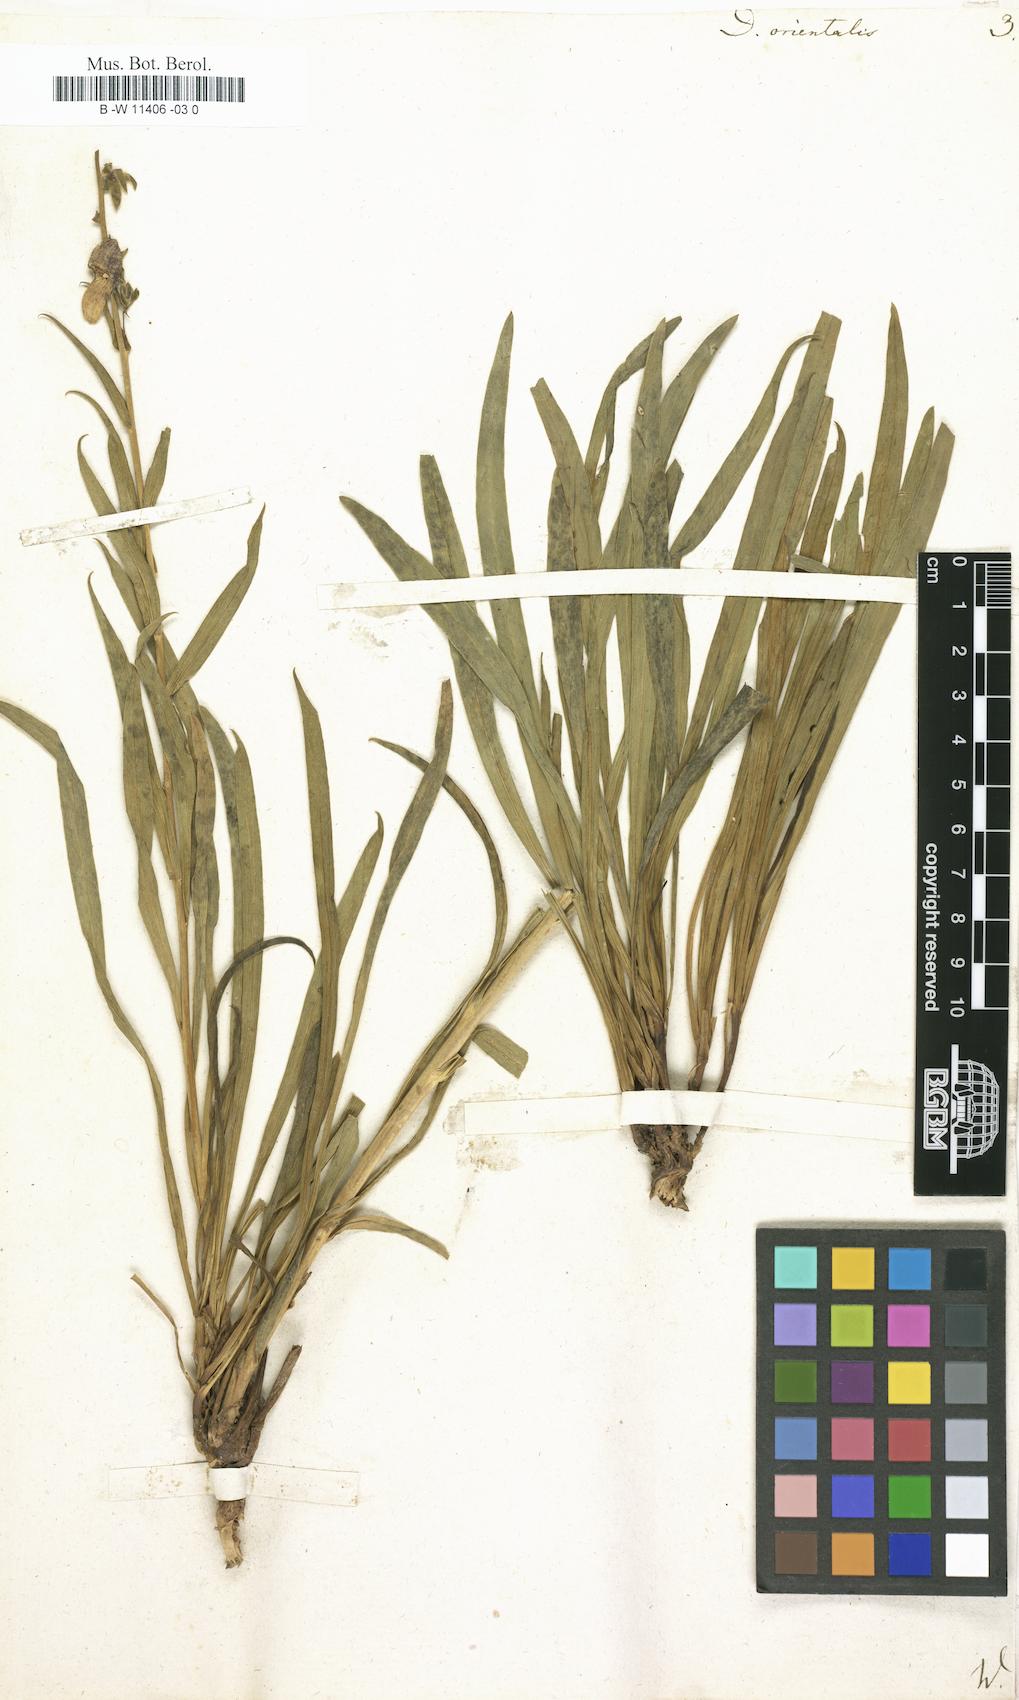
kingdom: Plantae
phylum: Tracheophyta
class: Magnoliopsida
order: Lamiales
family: Plantaginaceae
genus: Digitalis
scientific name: Digitalis
